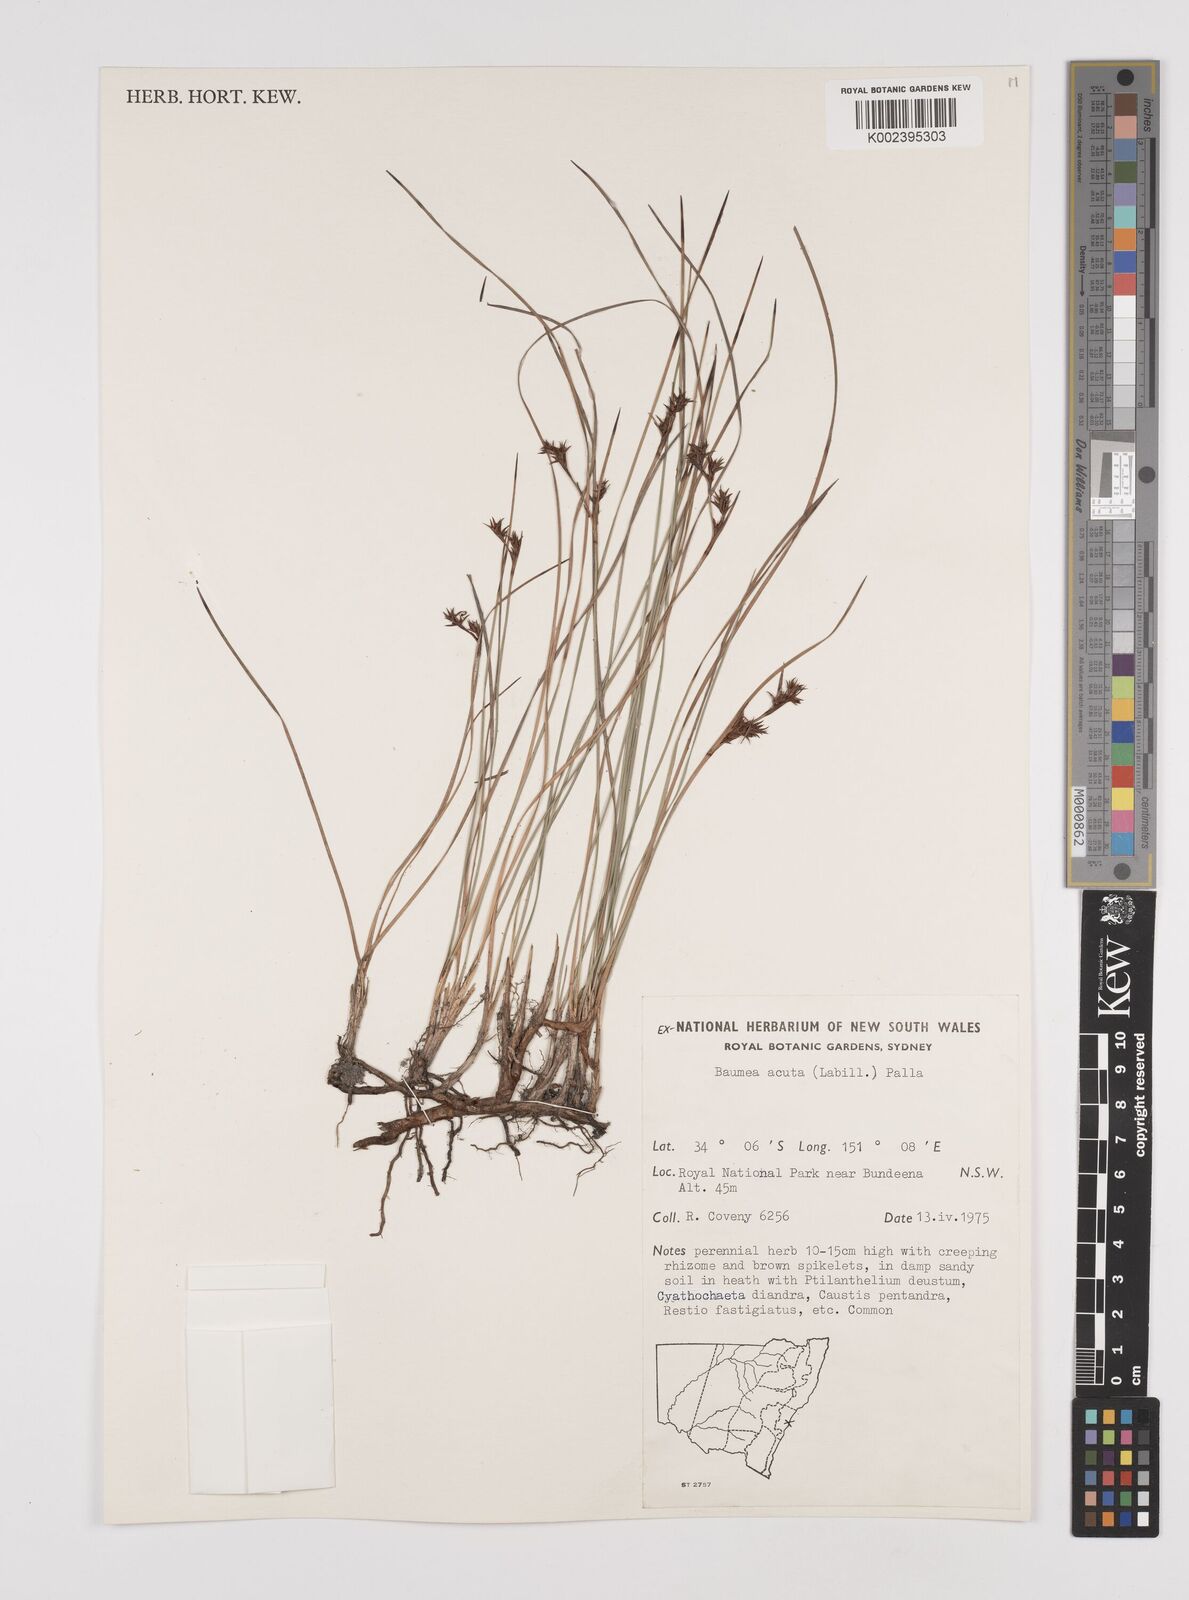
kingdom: Plantae
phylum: Tracheophyta
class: Liliopsida
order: Poales
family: Cyperaceae
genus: Machaerina
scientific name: Machaerina acuta
